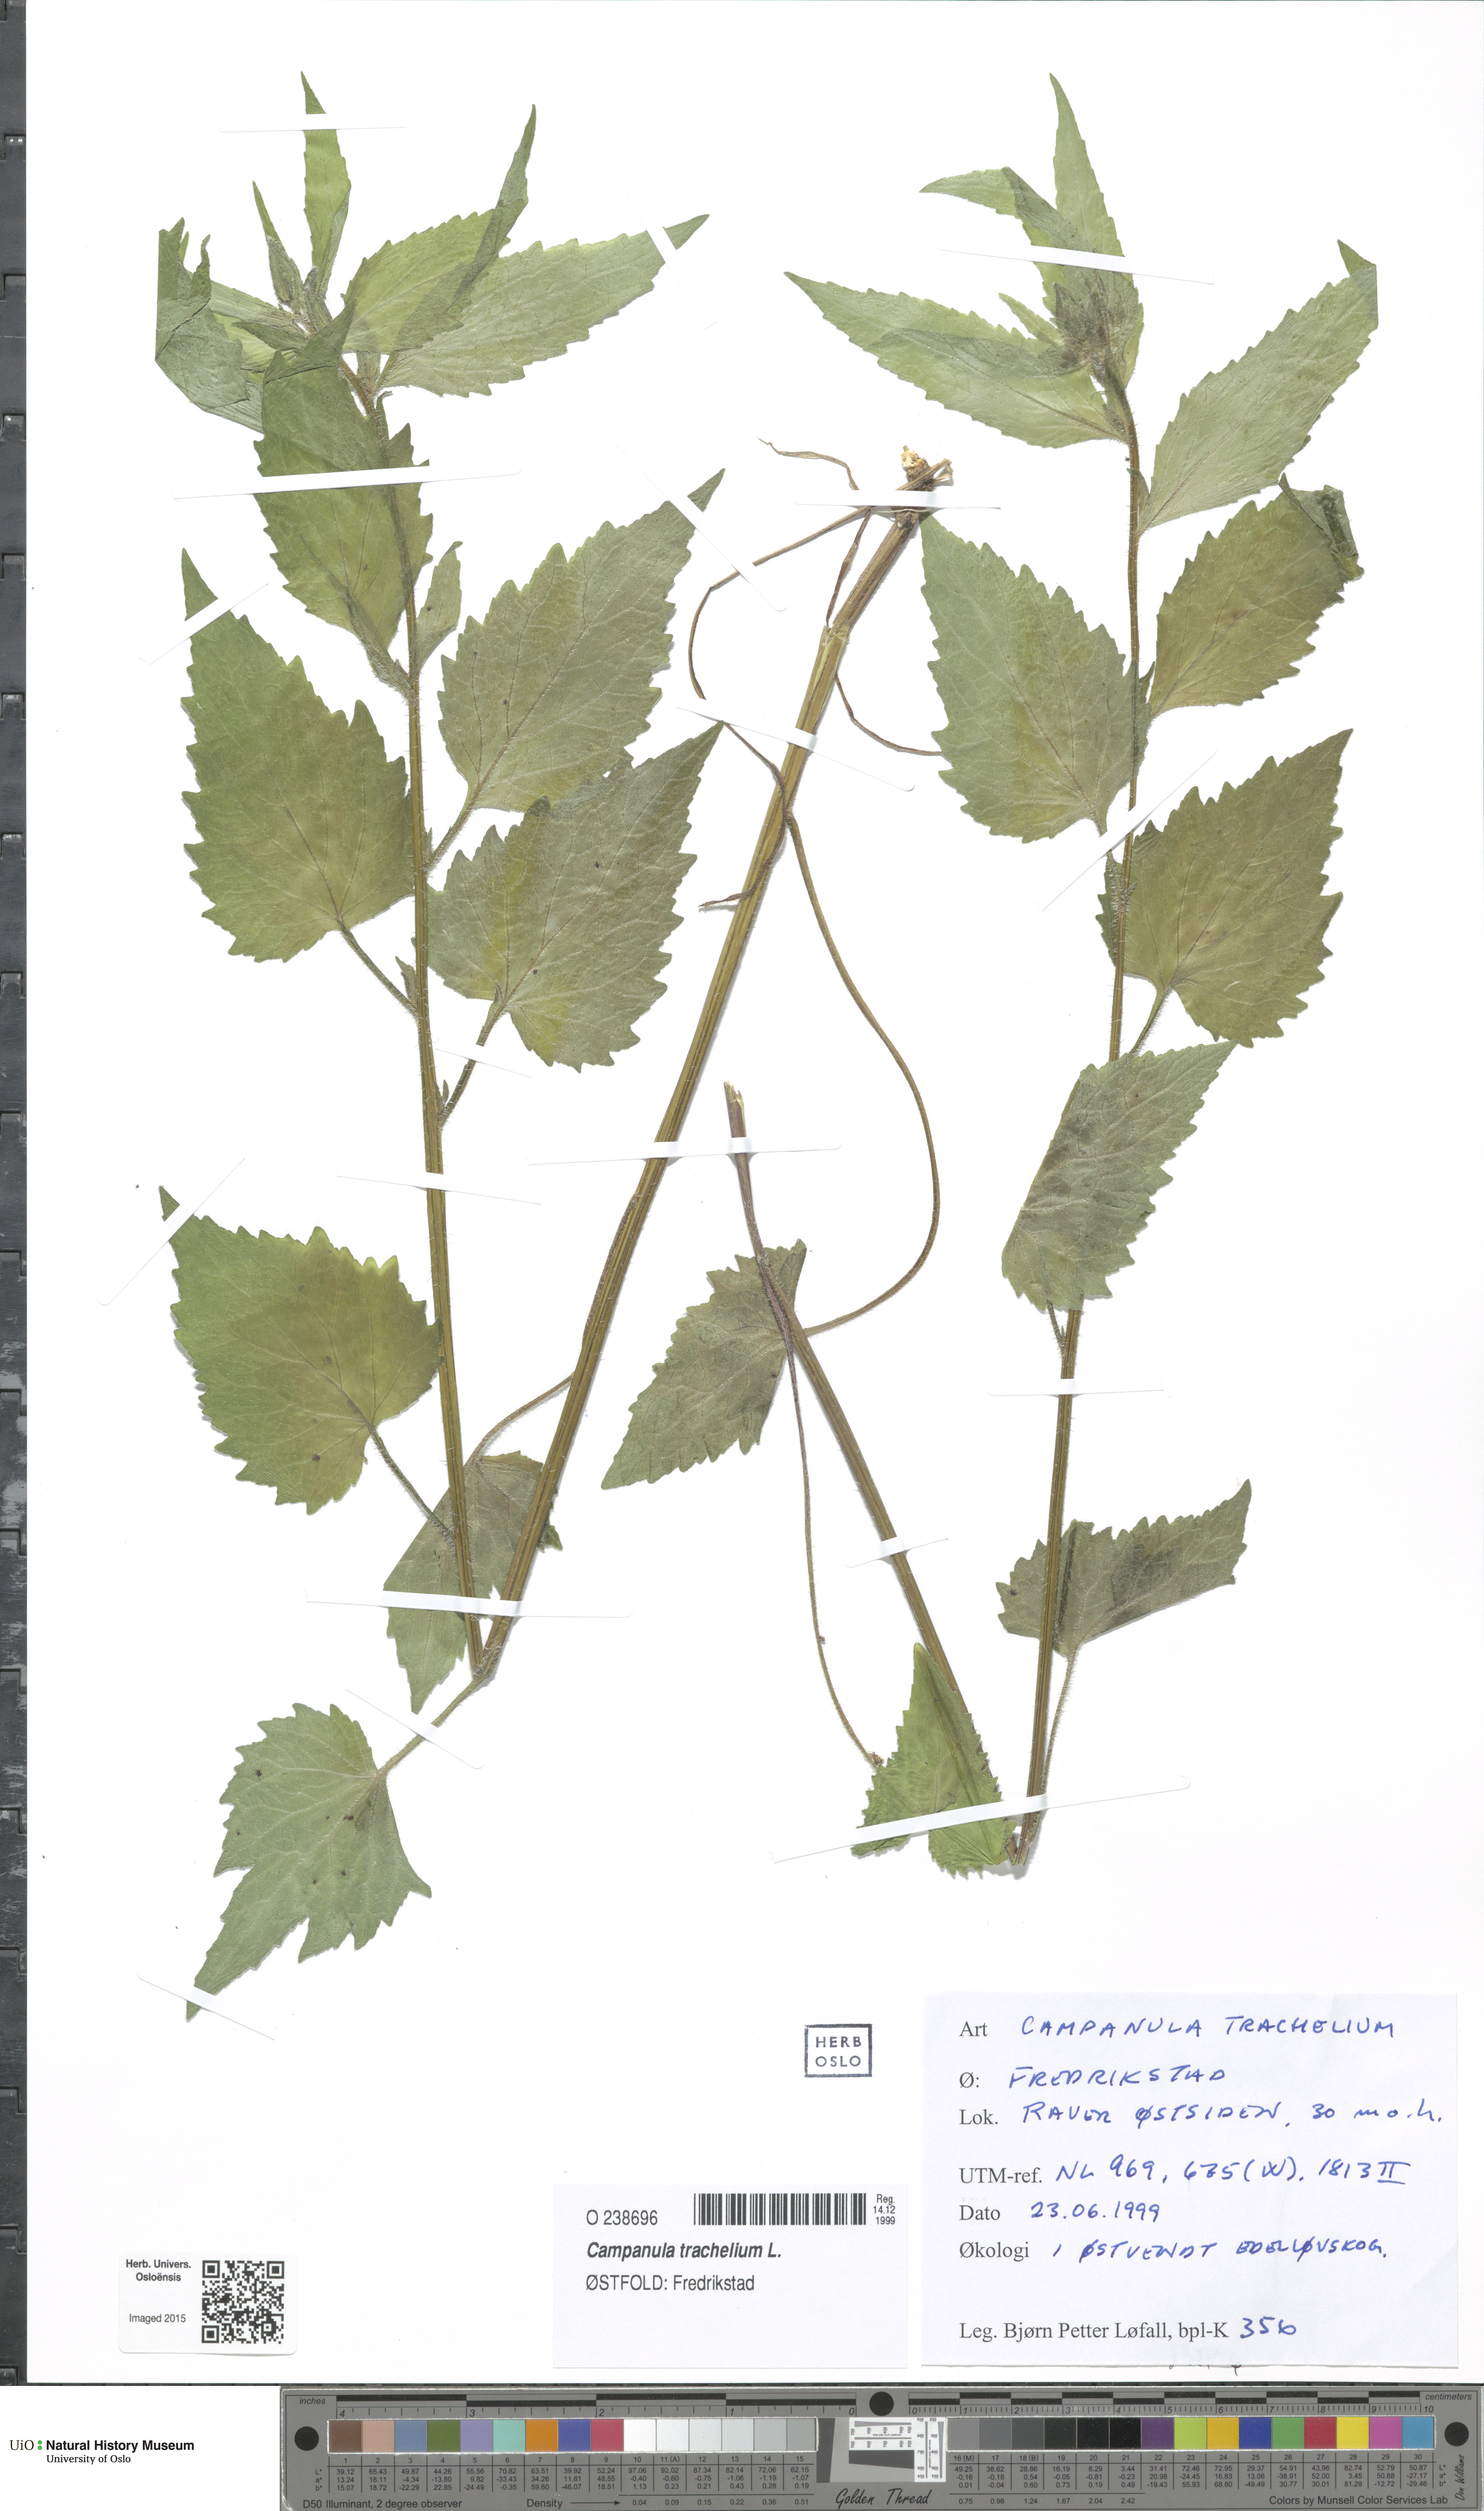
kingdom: Plantae
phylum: Tracheophyta
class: Magnoliopsida
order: Asterales
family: Campanulaceae
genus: Campanula
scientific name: Campanula trachelium
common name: Nettle-leaved bellflower
